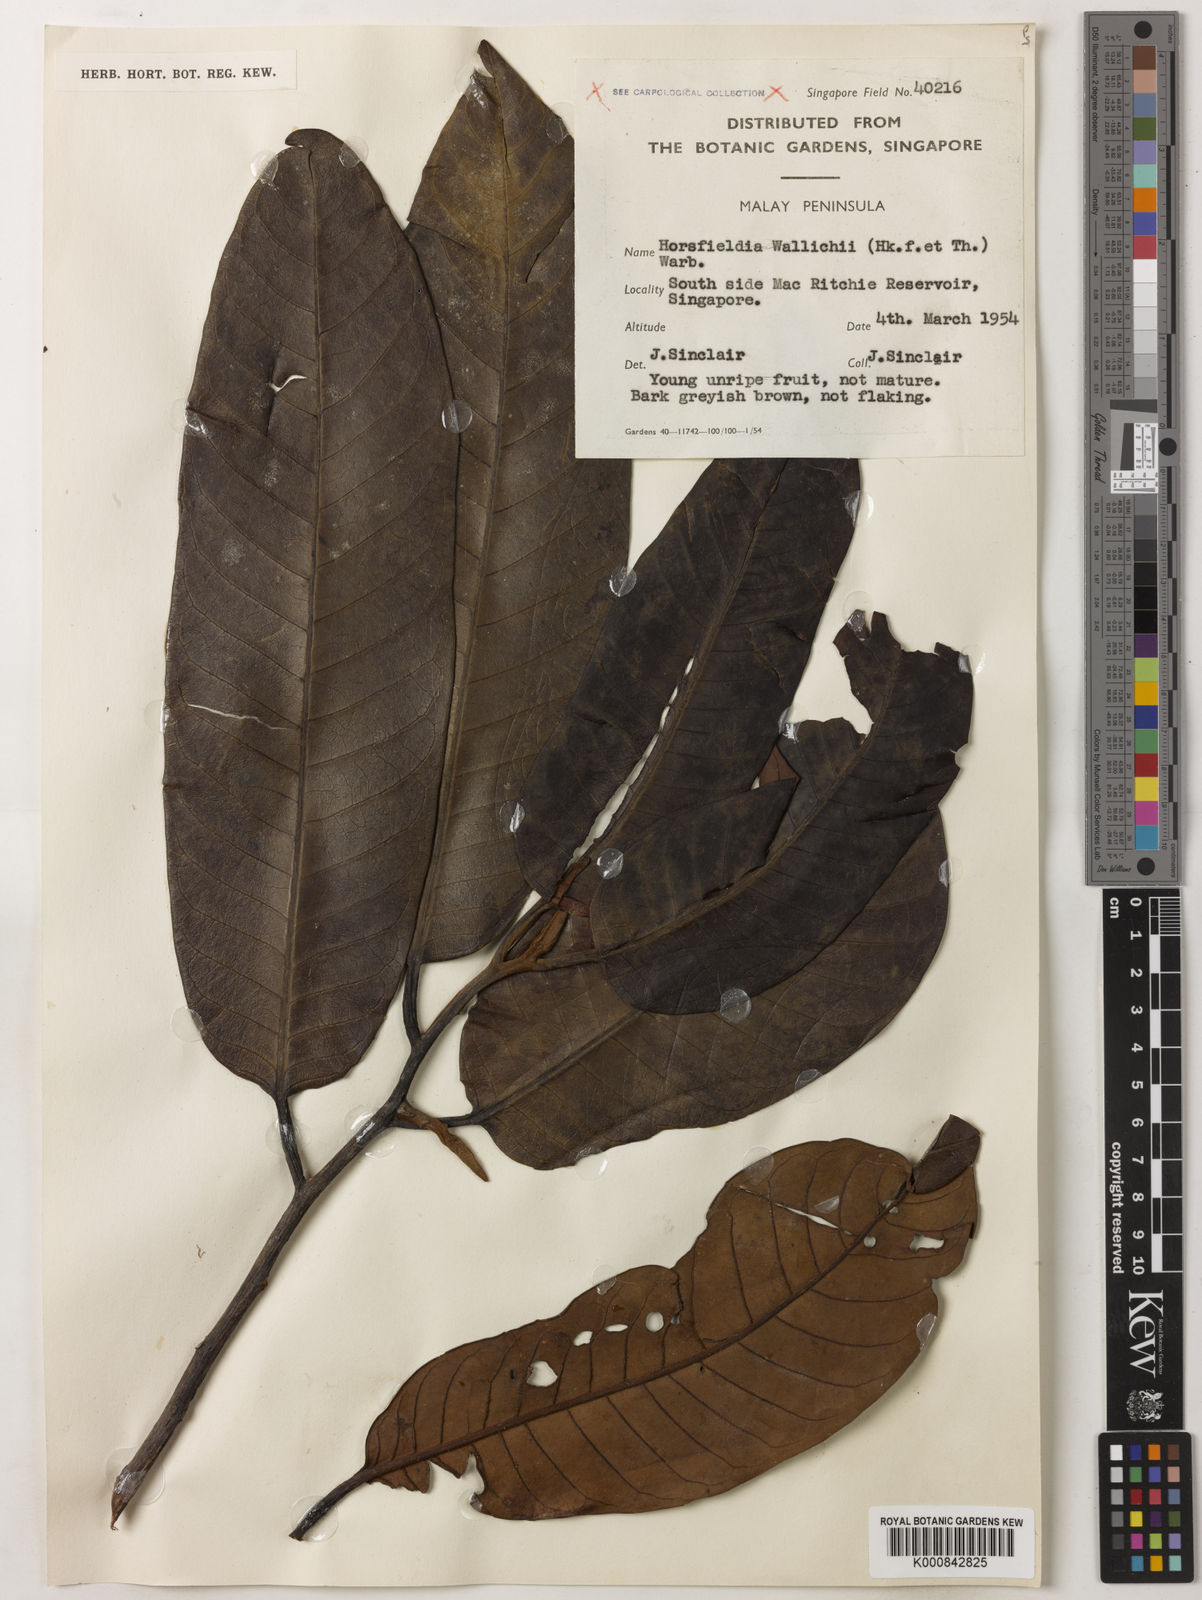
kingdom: Plantae
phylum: Tracheophyta
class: Magnoliopsida
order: Magnoliales
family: Myristicaceae
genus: Horsfieldia
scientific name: Horsfieldia wallichii
